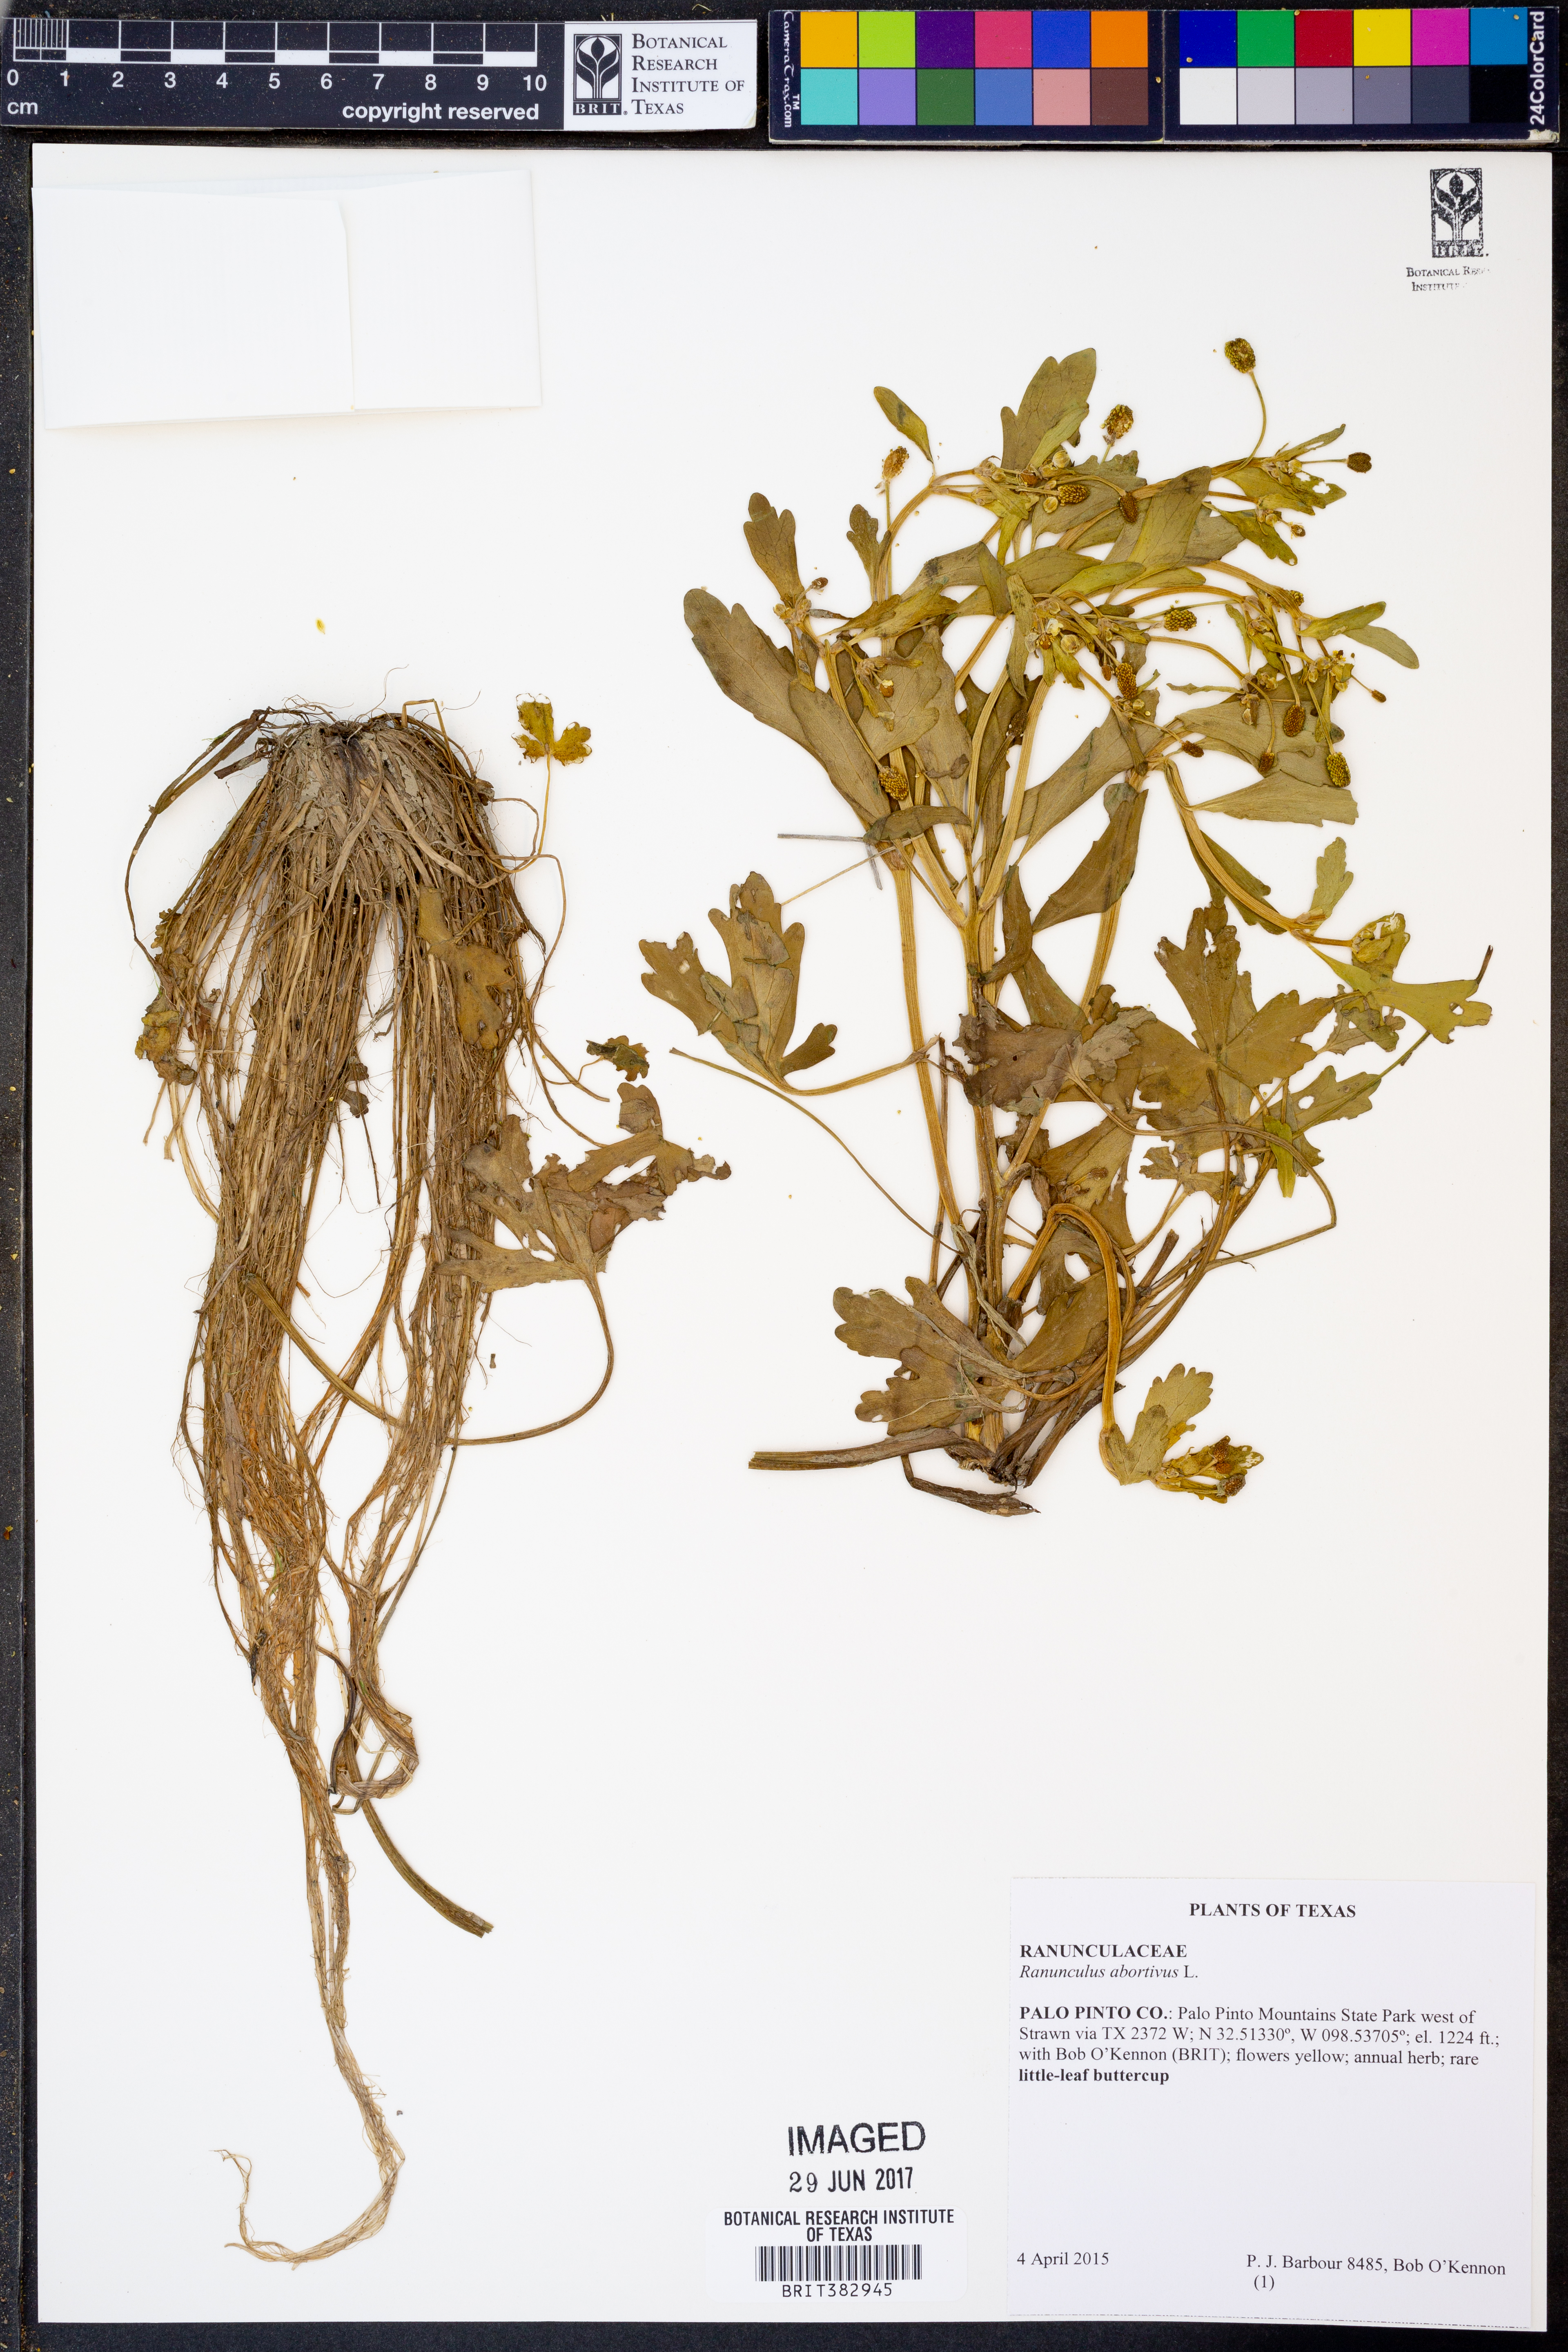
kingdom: Plantae
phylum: Tracheophyta
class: Magnoliopsida
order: Ranunculales
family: Ranunculaceae
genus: Ranunculus
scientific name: Ranunculus abortivus
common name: Early wood buttercup
